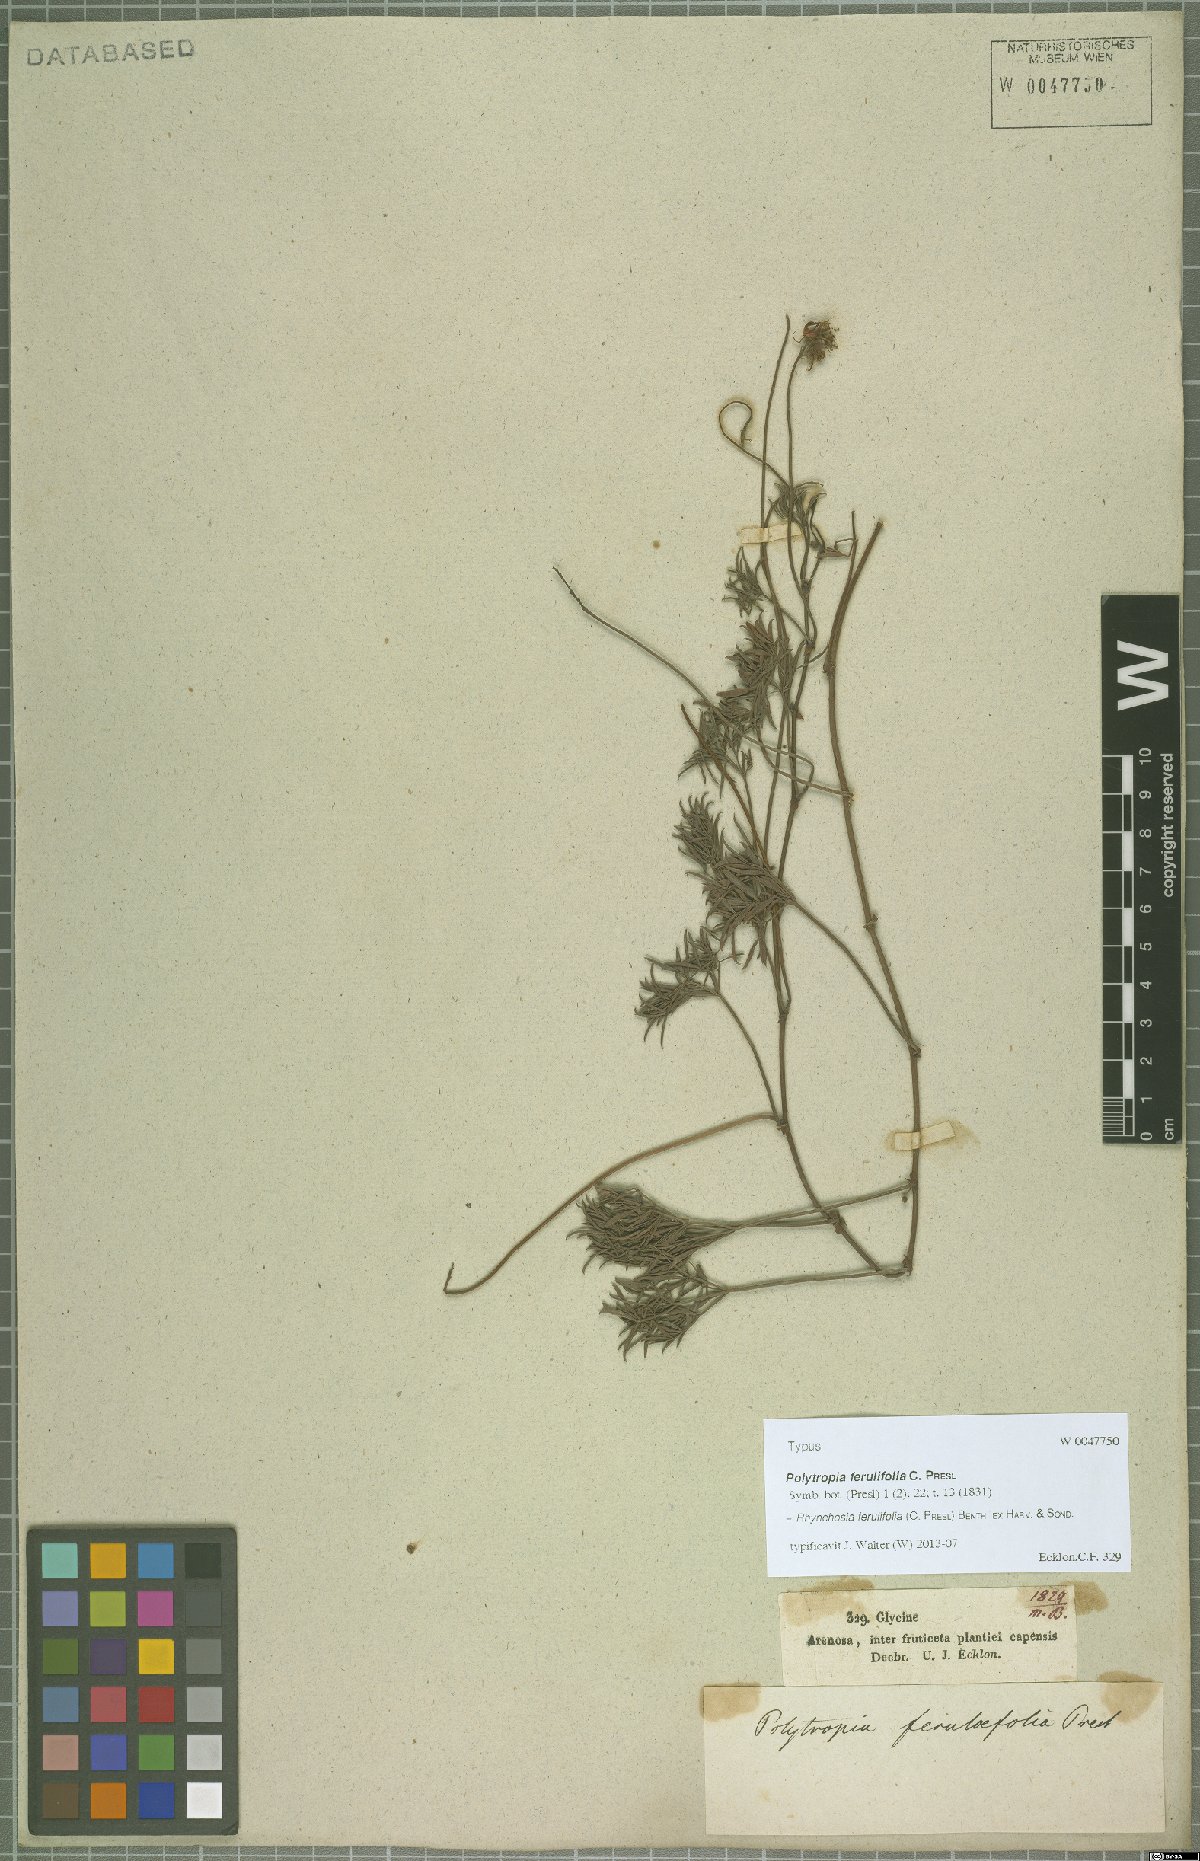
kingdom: Plantae
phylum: Tracheophyta
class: Magnoliopsida
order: Fabales
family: Fabaceae
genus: Rhynchosia
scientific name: Rhynchosia ferulifolia
